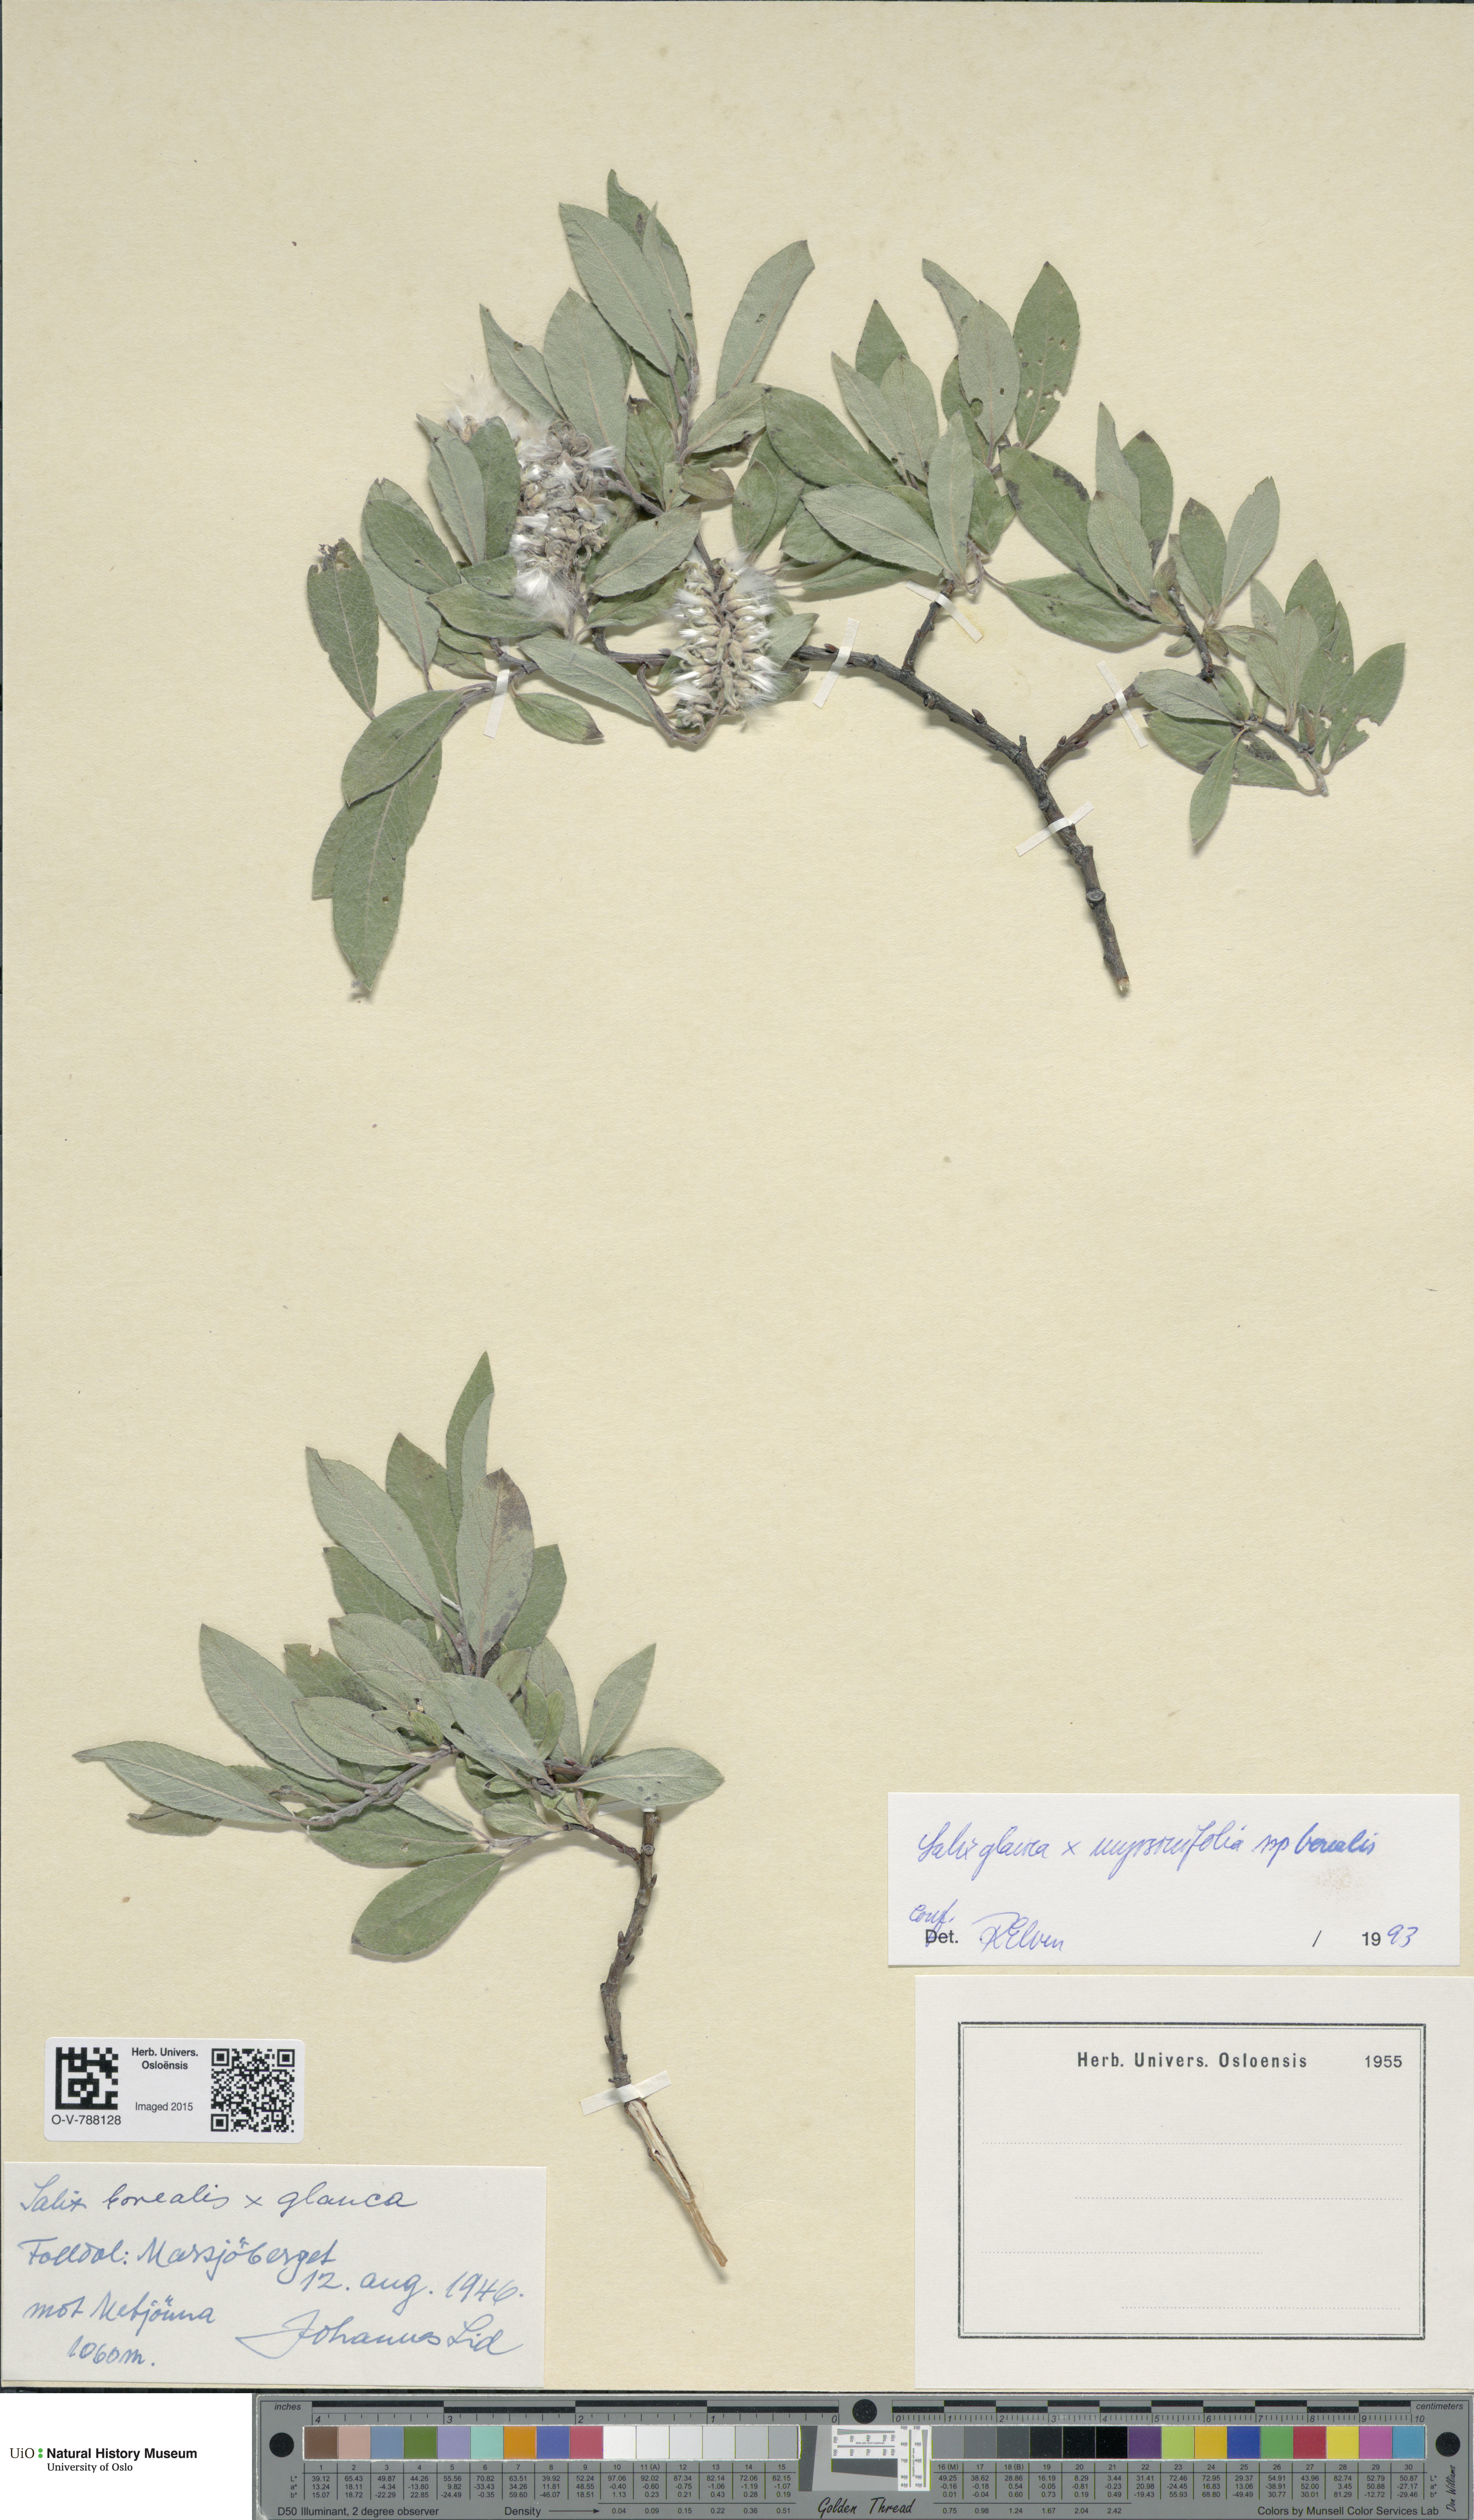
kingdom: Plantae
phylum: Tracheophyta
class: Magnoliopsida
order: Malpighiales
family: Salicaceae
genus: Salix
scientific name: Salix
